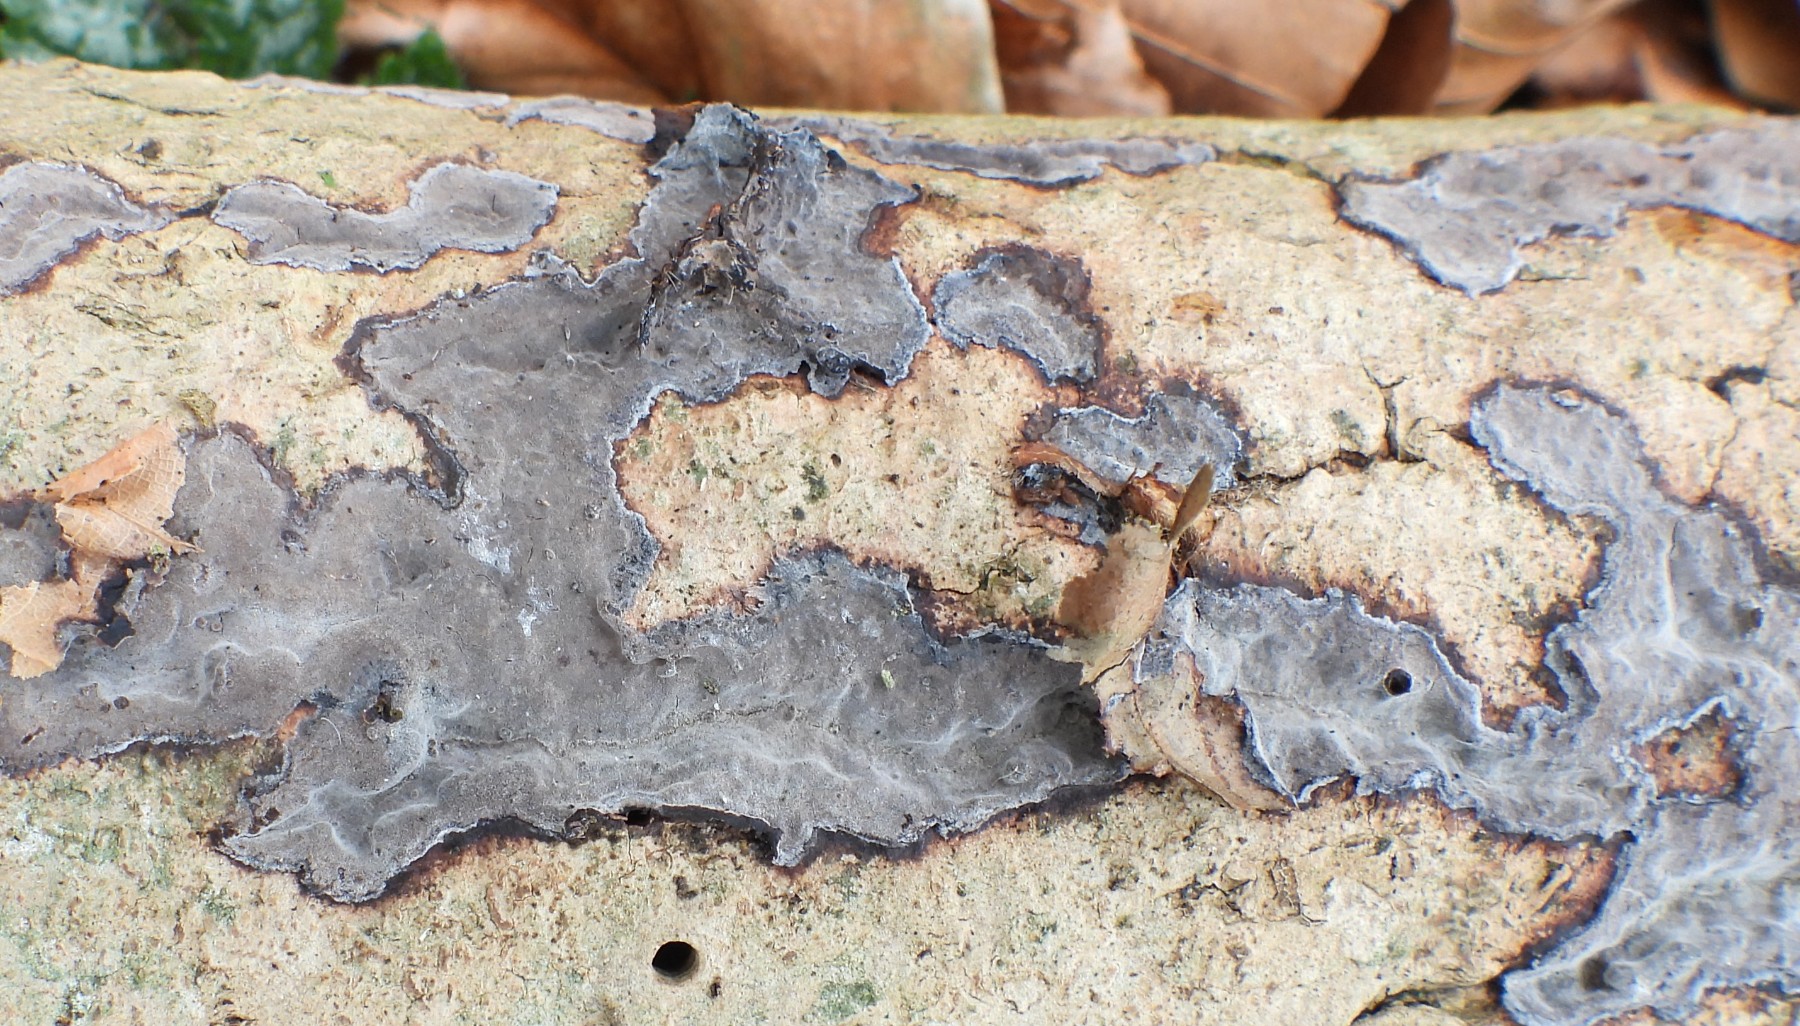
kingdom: Fungi
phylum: Basidiomycota
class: Agaricomycetes
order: Russulales
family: Peniophoraceae
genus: Peniophora
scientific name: Peniophora limitata
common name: mørkrandet voksskind
